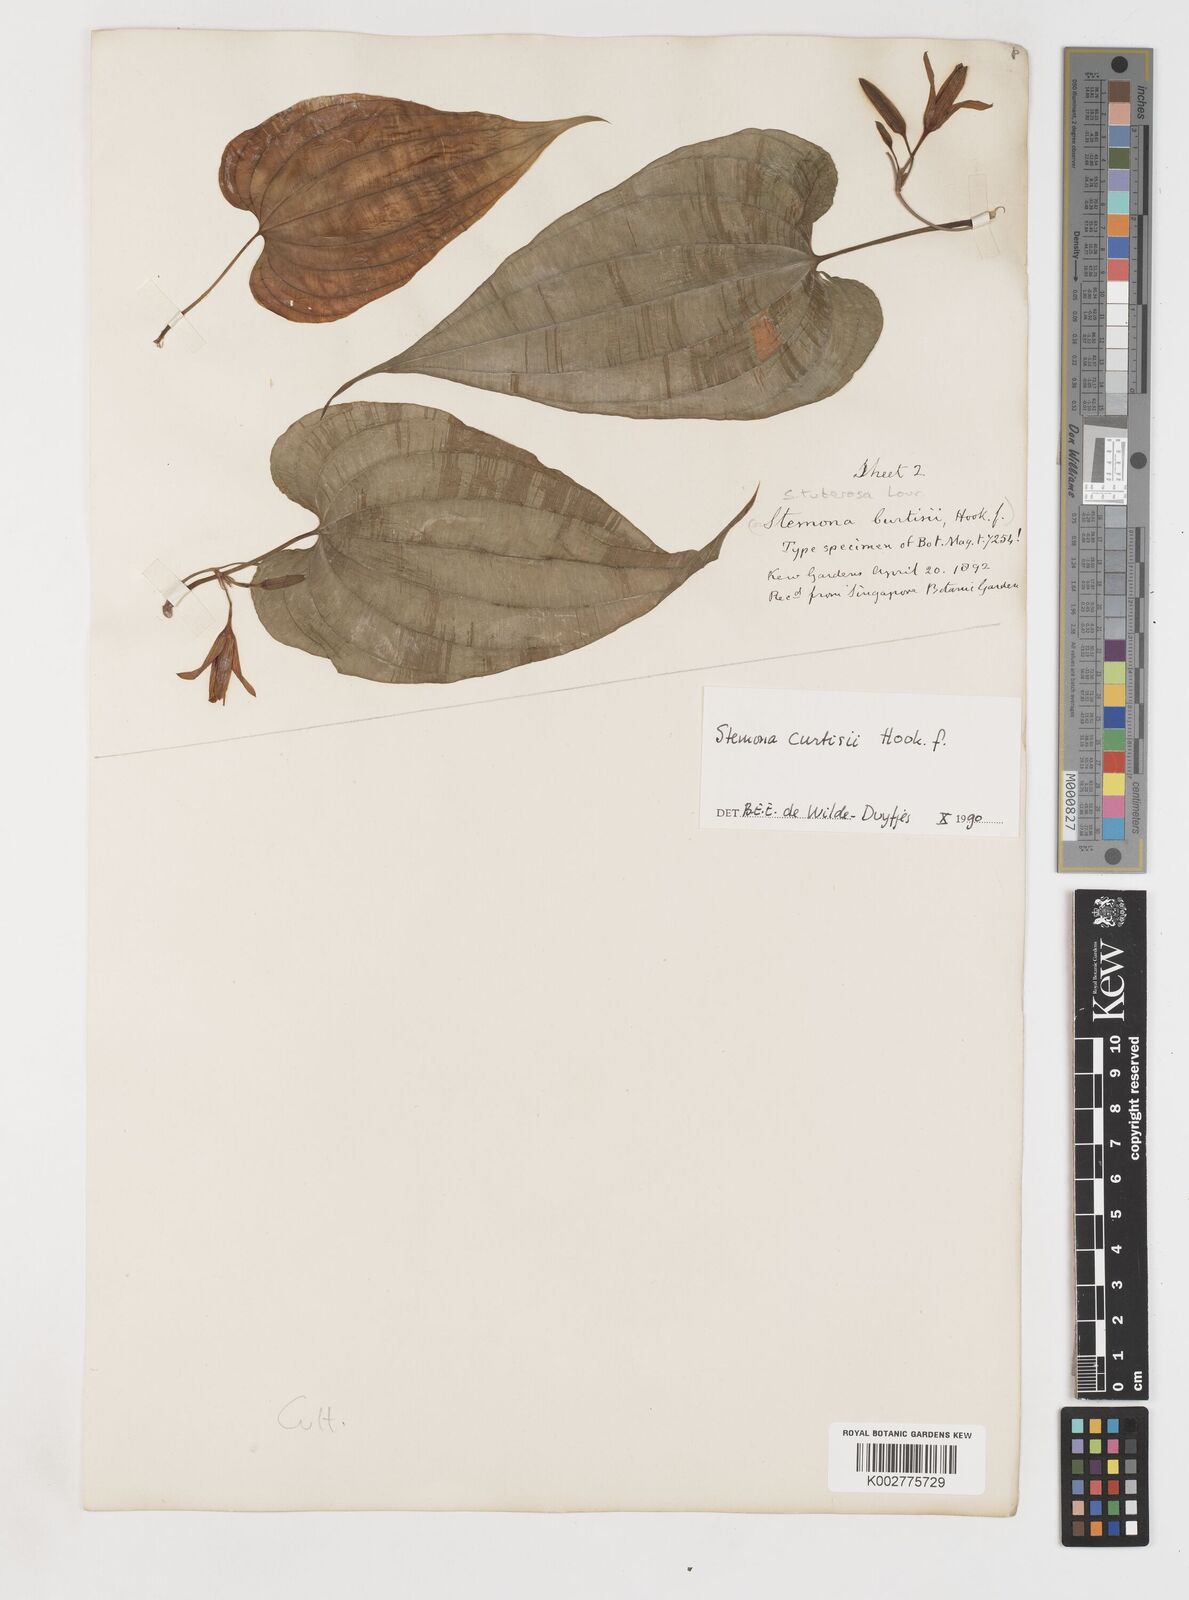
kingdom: Plantae
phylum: Tracheophyta
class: Liliopsida
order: Pandanales
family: Stemonaceae
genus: Stemona
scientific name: Stemona tuberosa
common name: Stemona
